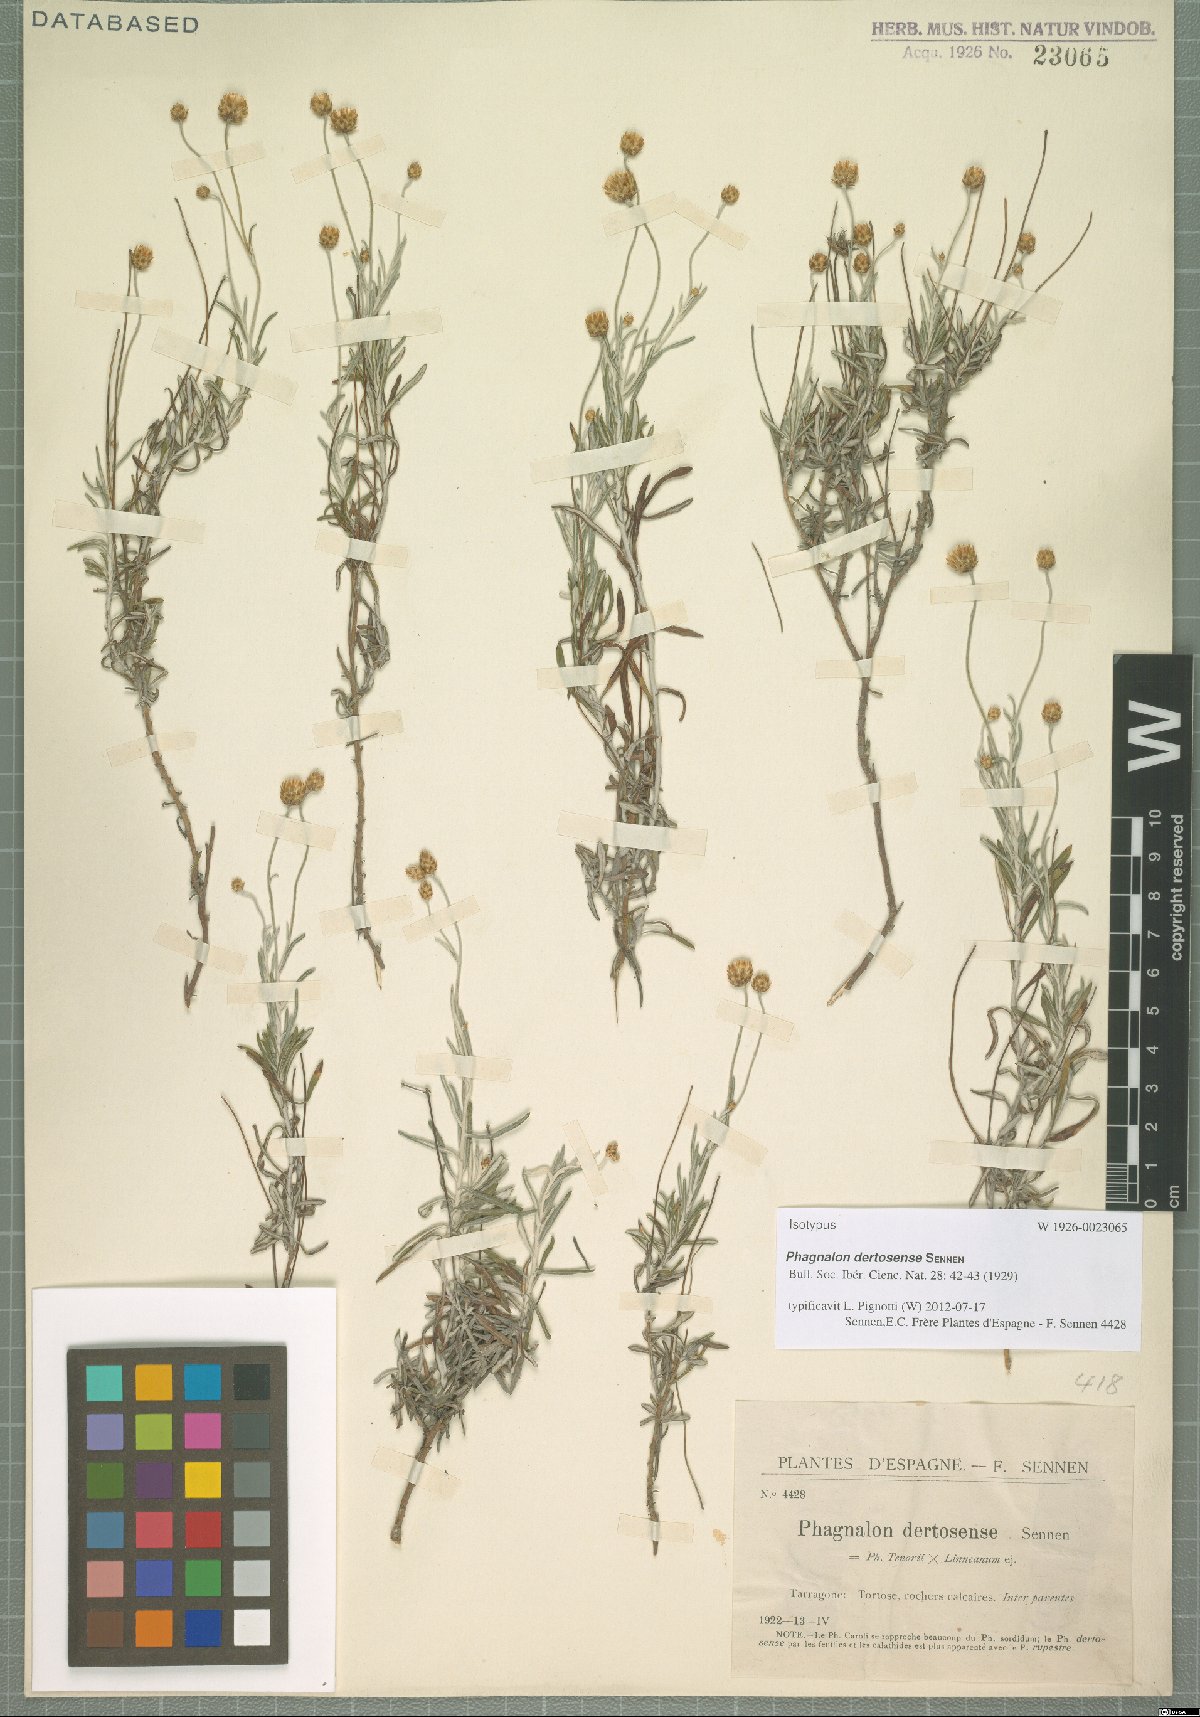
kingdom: Plantae
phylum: Tracheophyta
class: Magnoliopsida
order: Asterales
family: Asteraceae
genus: Phagnalon
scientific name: Phagnalon caroli
